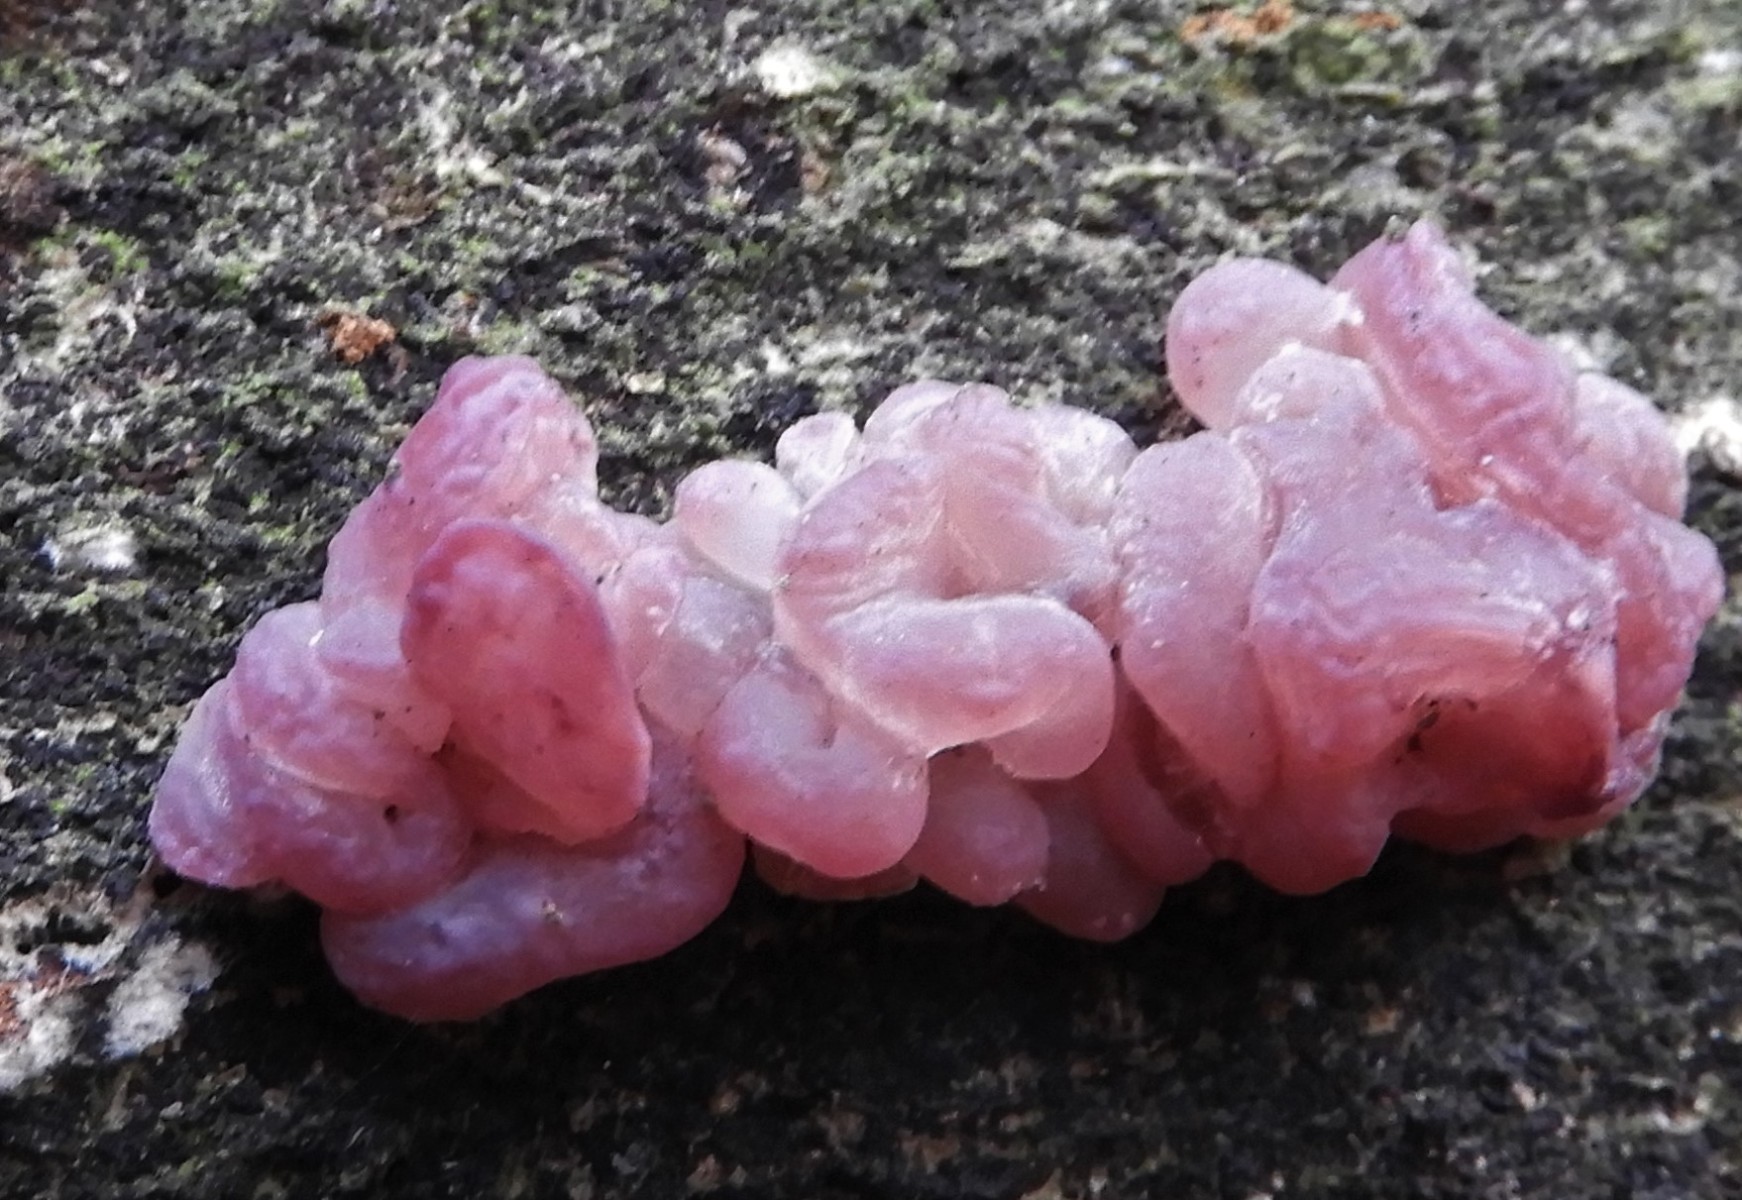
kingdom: Fungi
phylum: Ascomycota
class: Leotiomycetes
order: Helotiales
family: Gelatinodiscaceae
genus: Ascocoryne
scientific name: Ascocoryne sarcoides
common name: rødlilla sejskive
